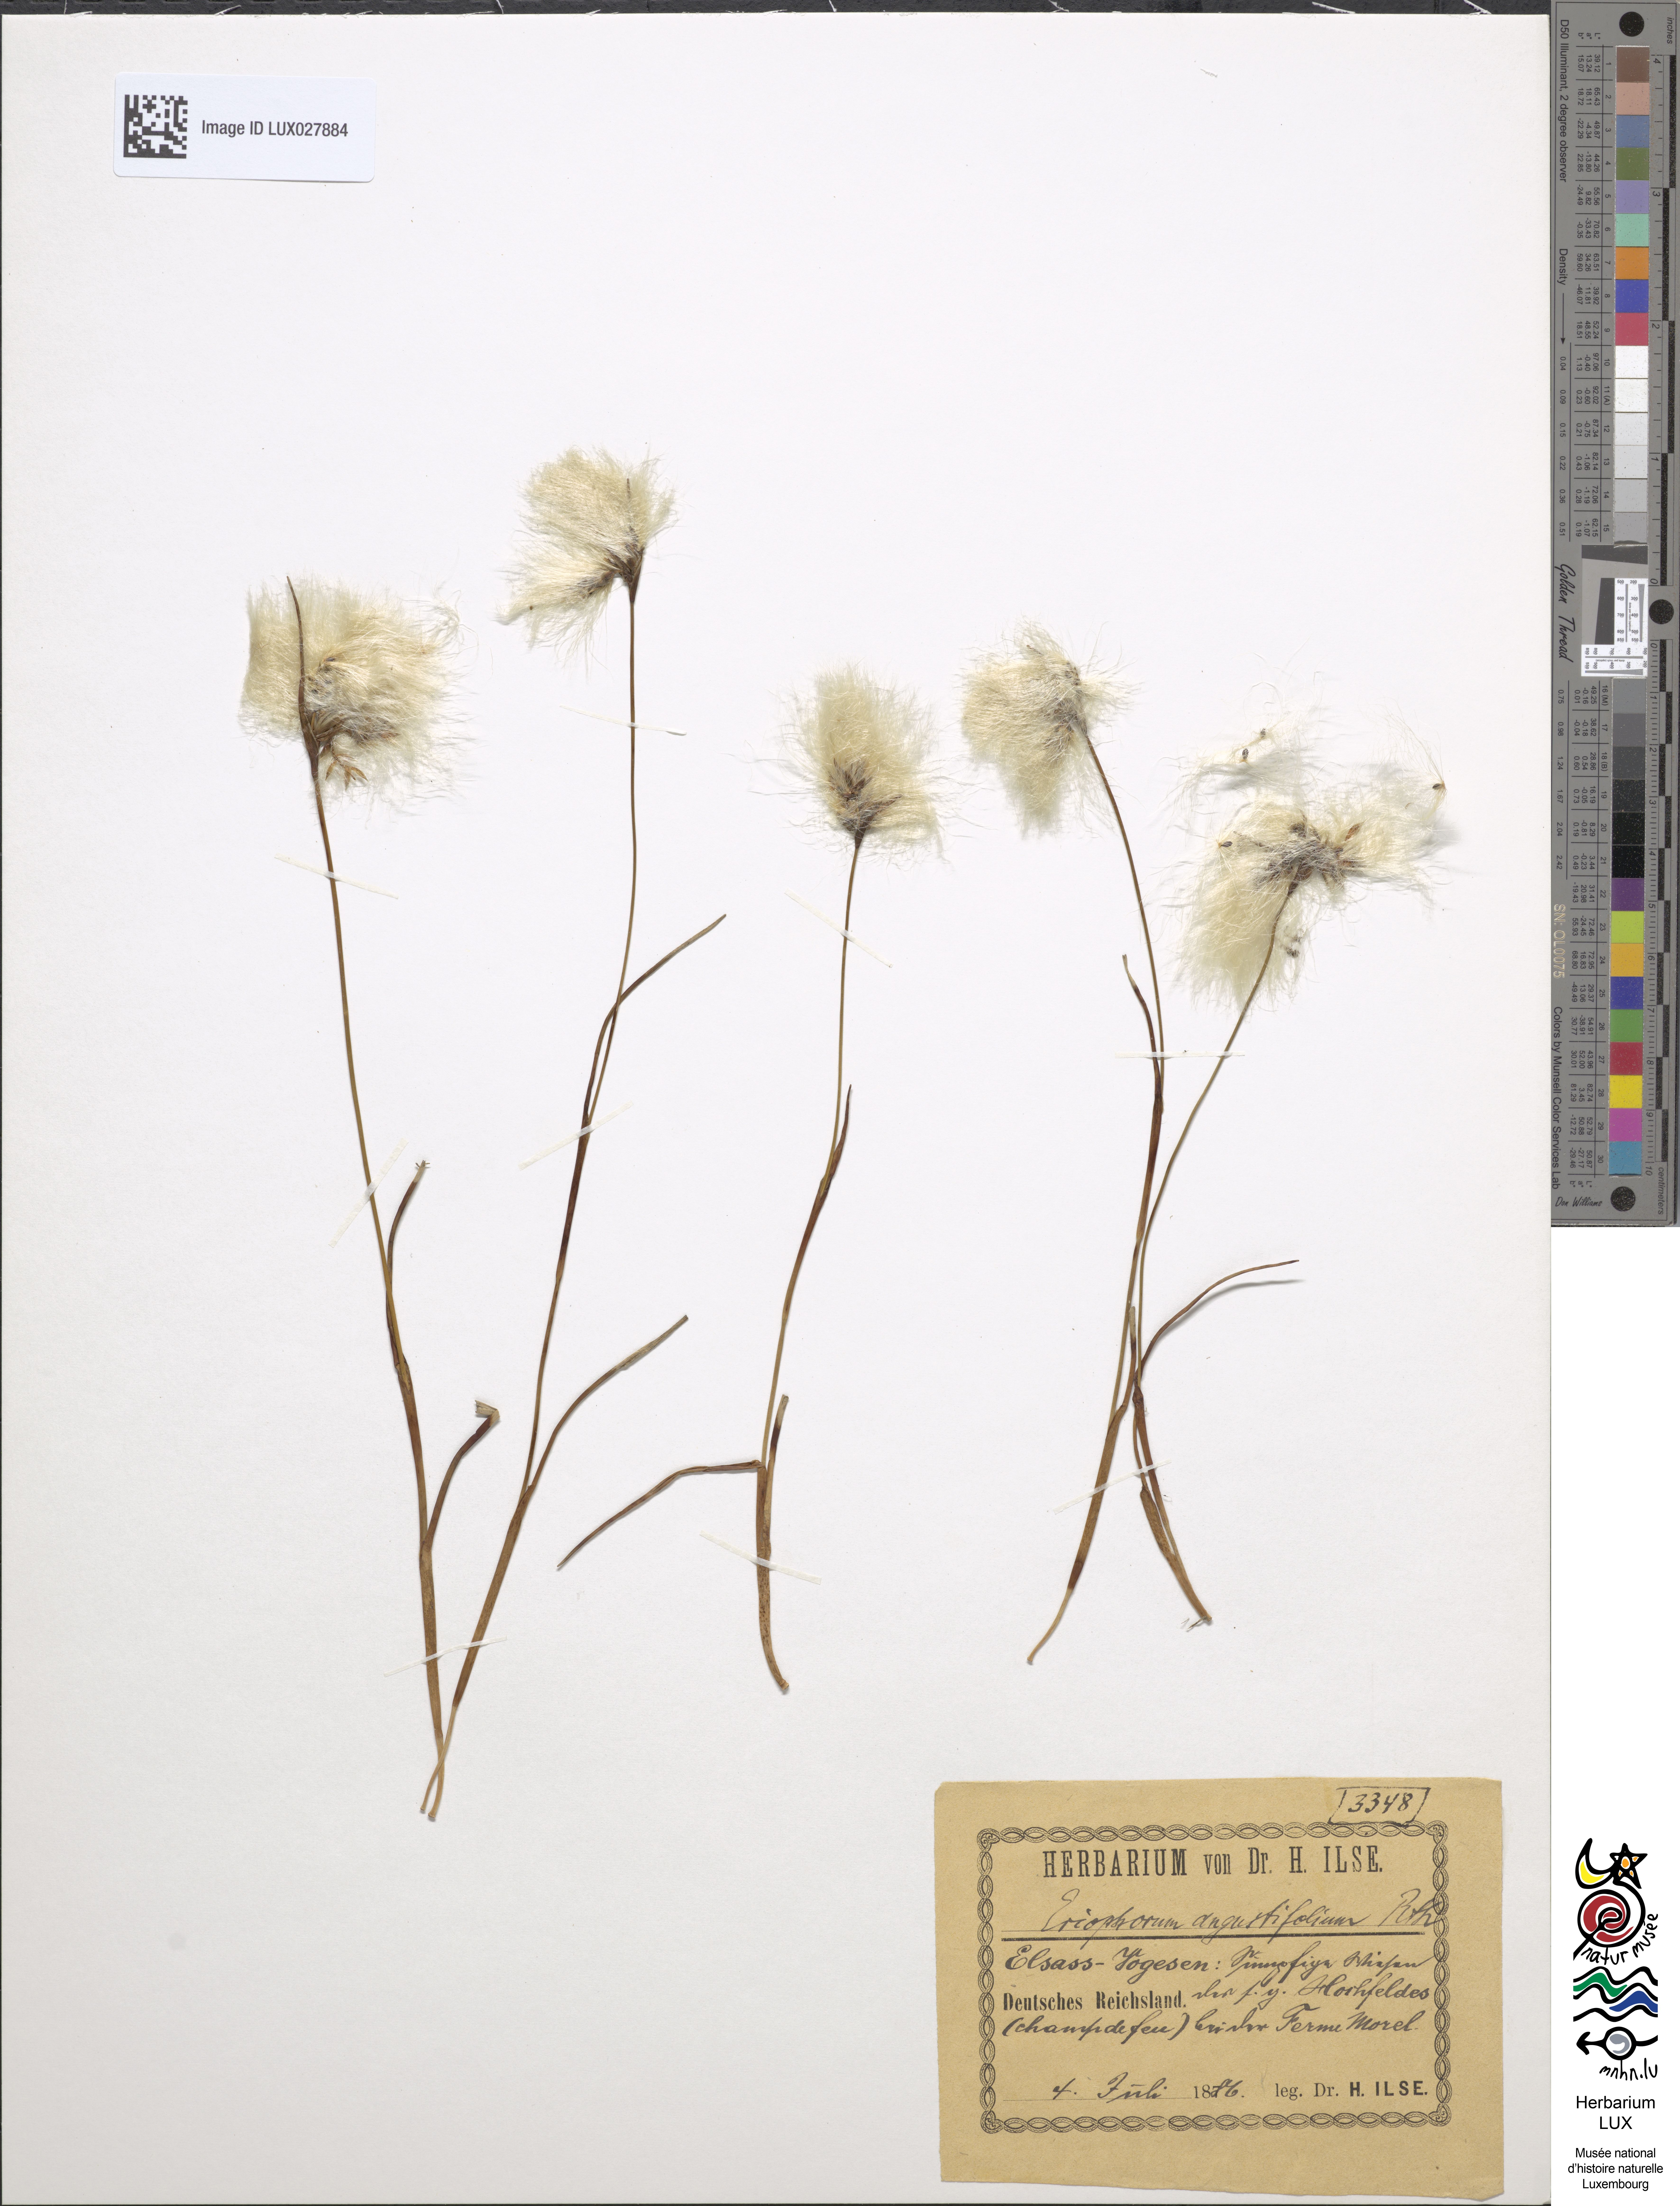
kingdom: Plantae
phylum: Tracheophyta
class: Liliopsida
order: Poales
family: Cyperaceae
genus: Eriophorum
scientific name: Eriophorum angustifolium
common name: Common cottongrass
